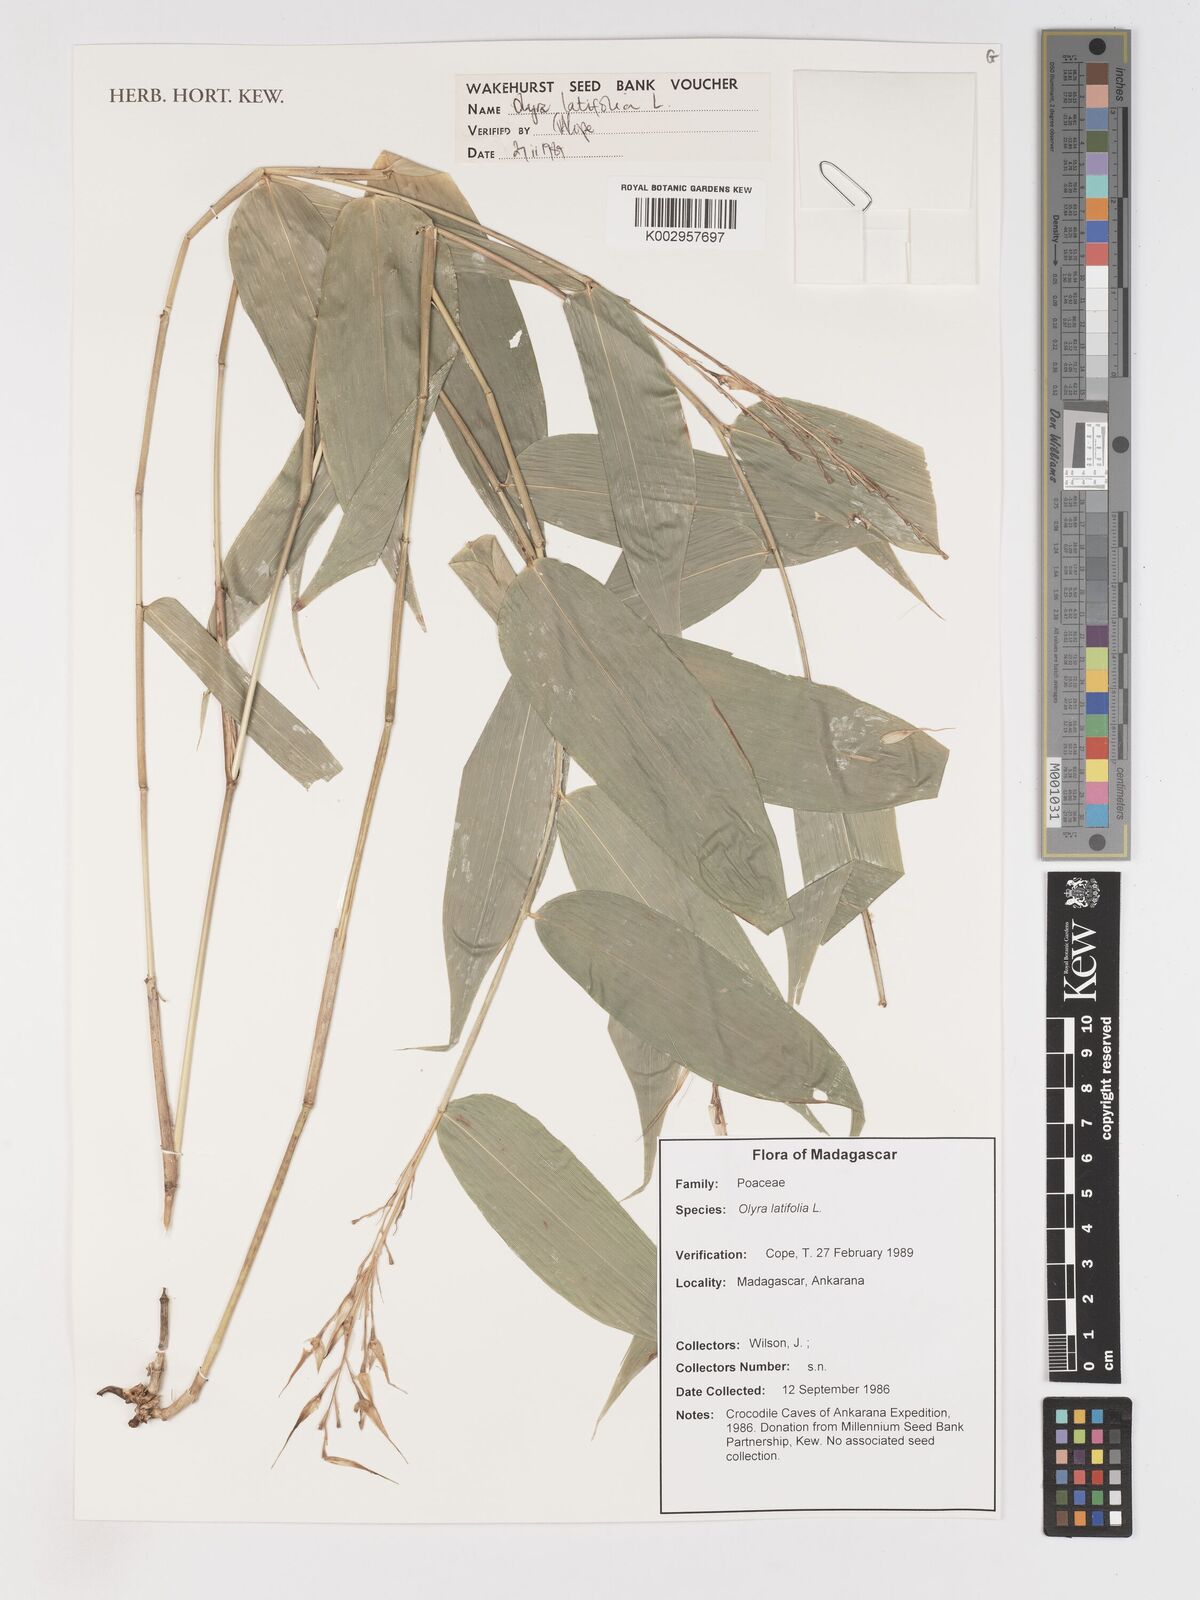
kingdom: Plantae
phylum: Tracheophyta
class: Liliopsida
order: Poales
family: Poaceae
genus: Olyra
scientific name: Olyra latifolia
